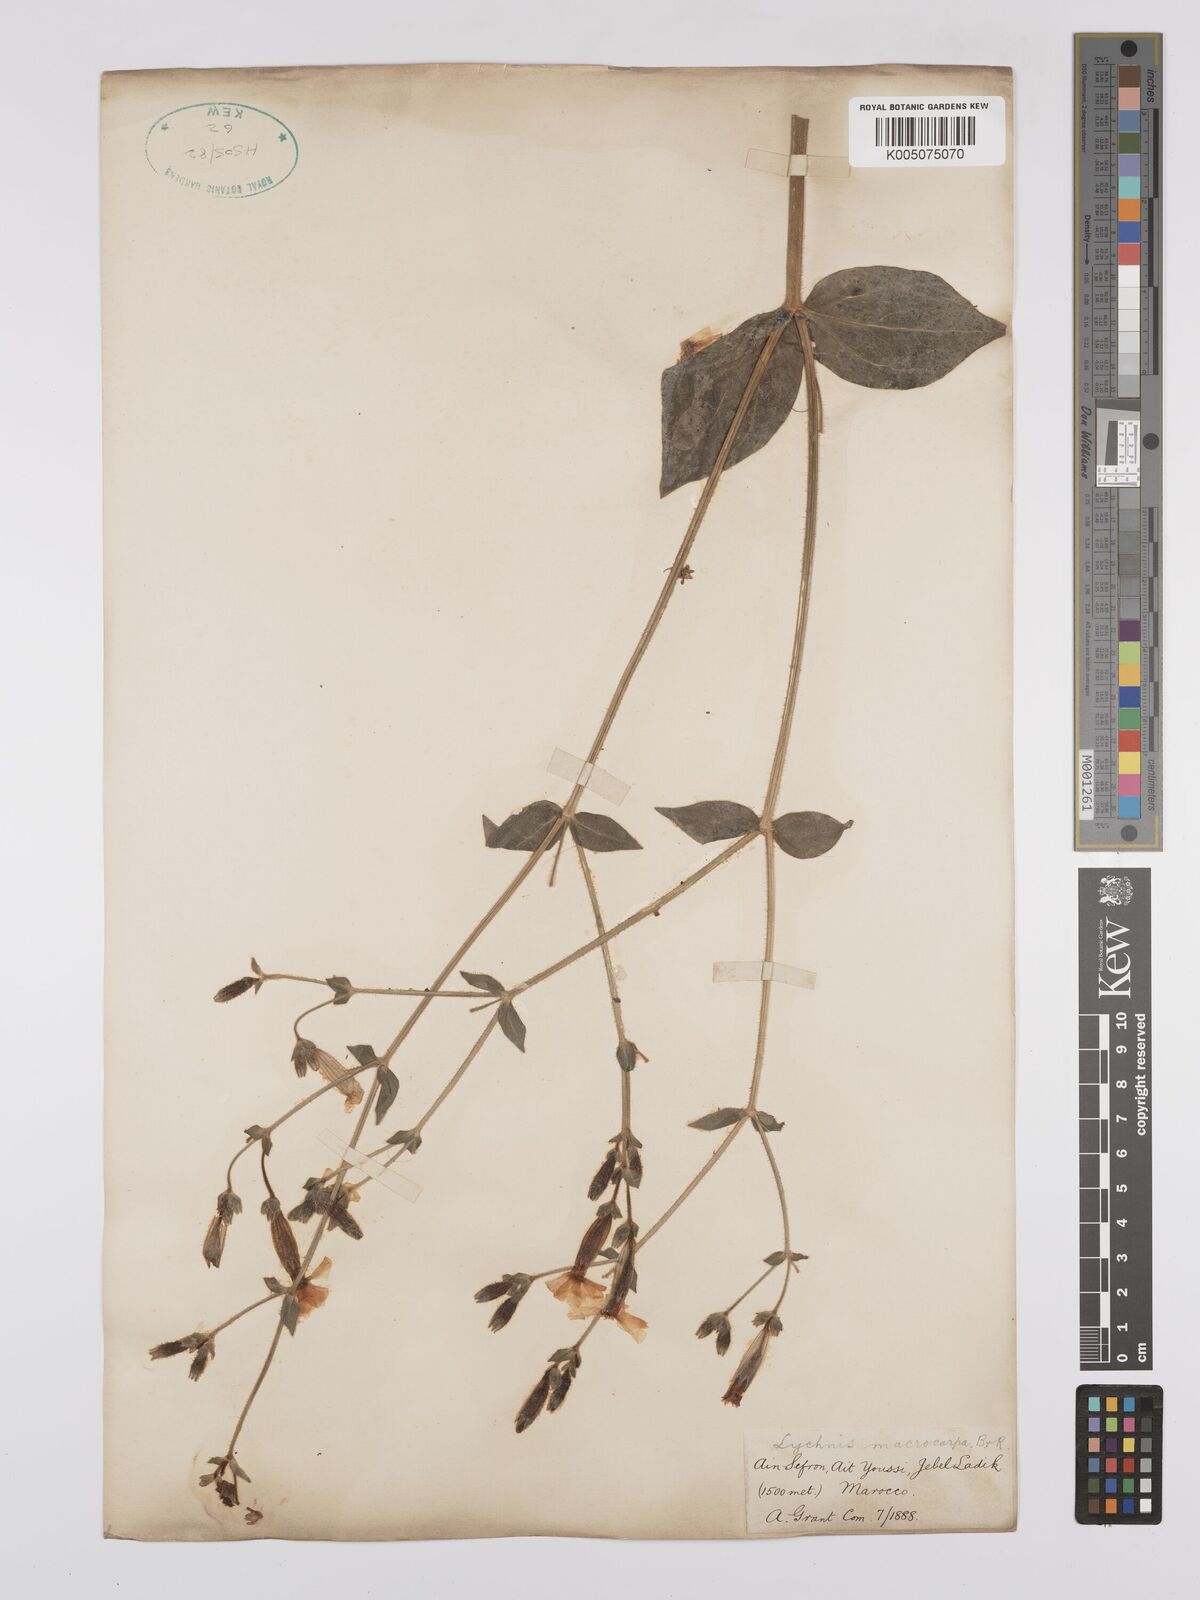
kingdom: Plantae
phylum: Tracheophyta
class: Magnoliopsida
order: Caryophyllales
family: Caryophyllaceae
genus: Silene
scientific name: Silene
